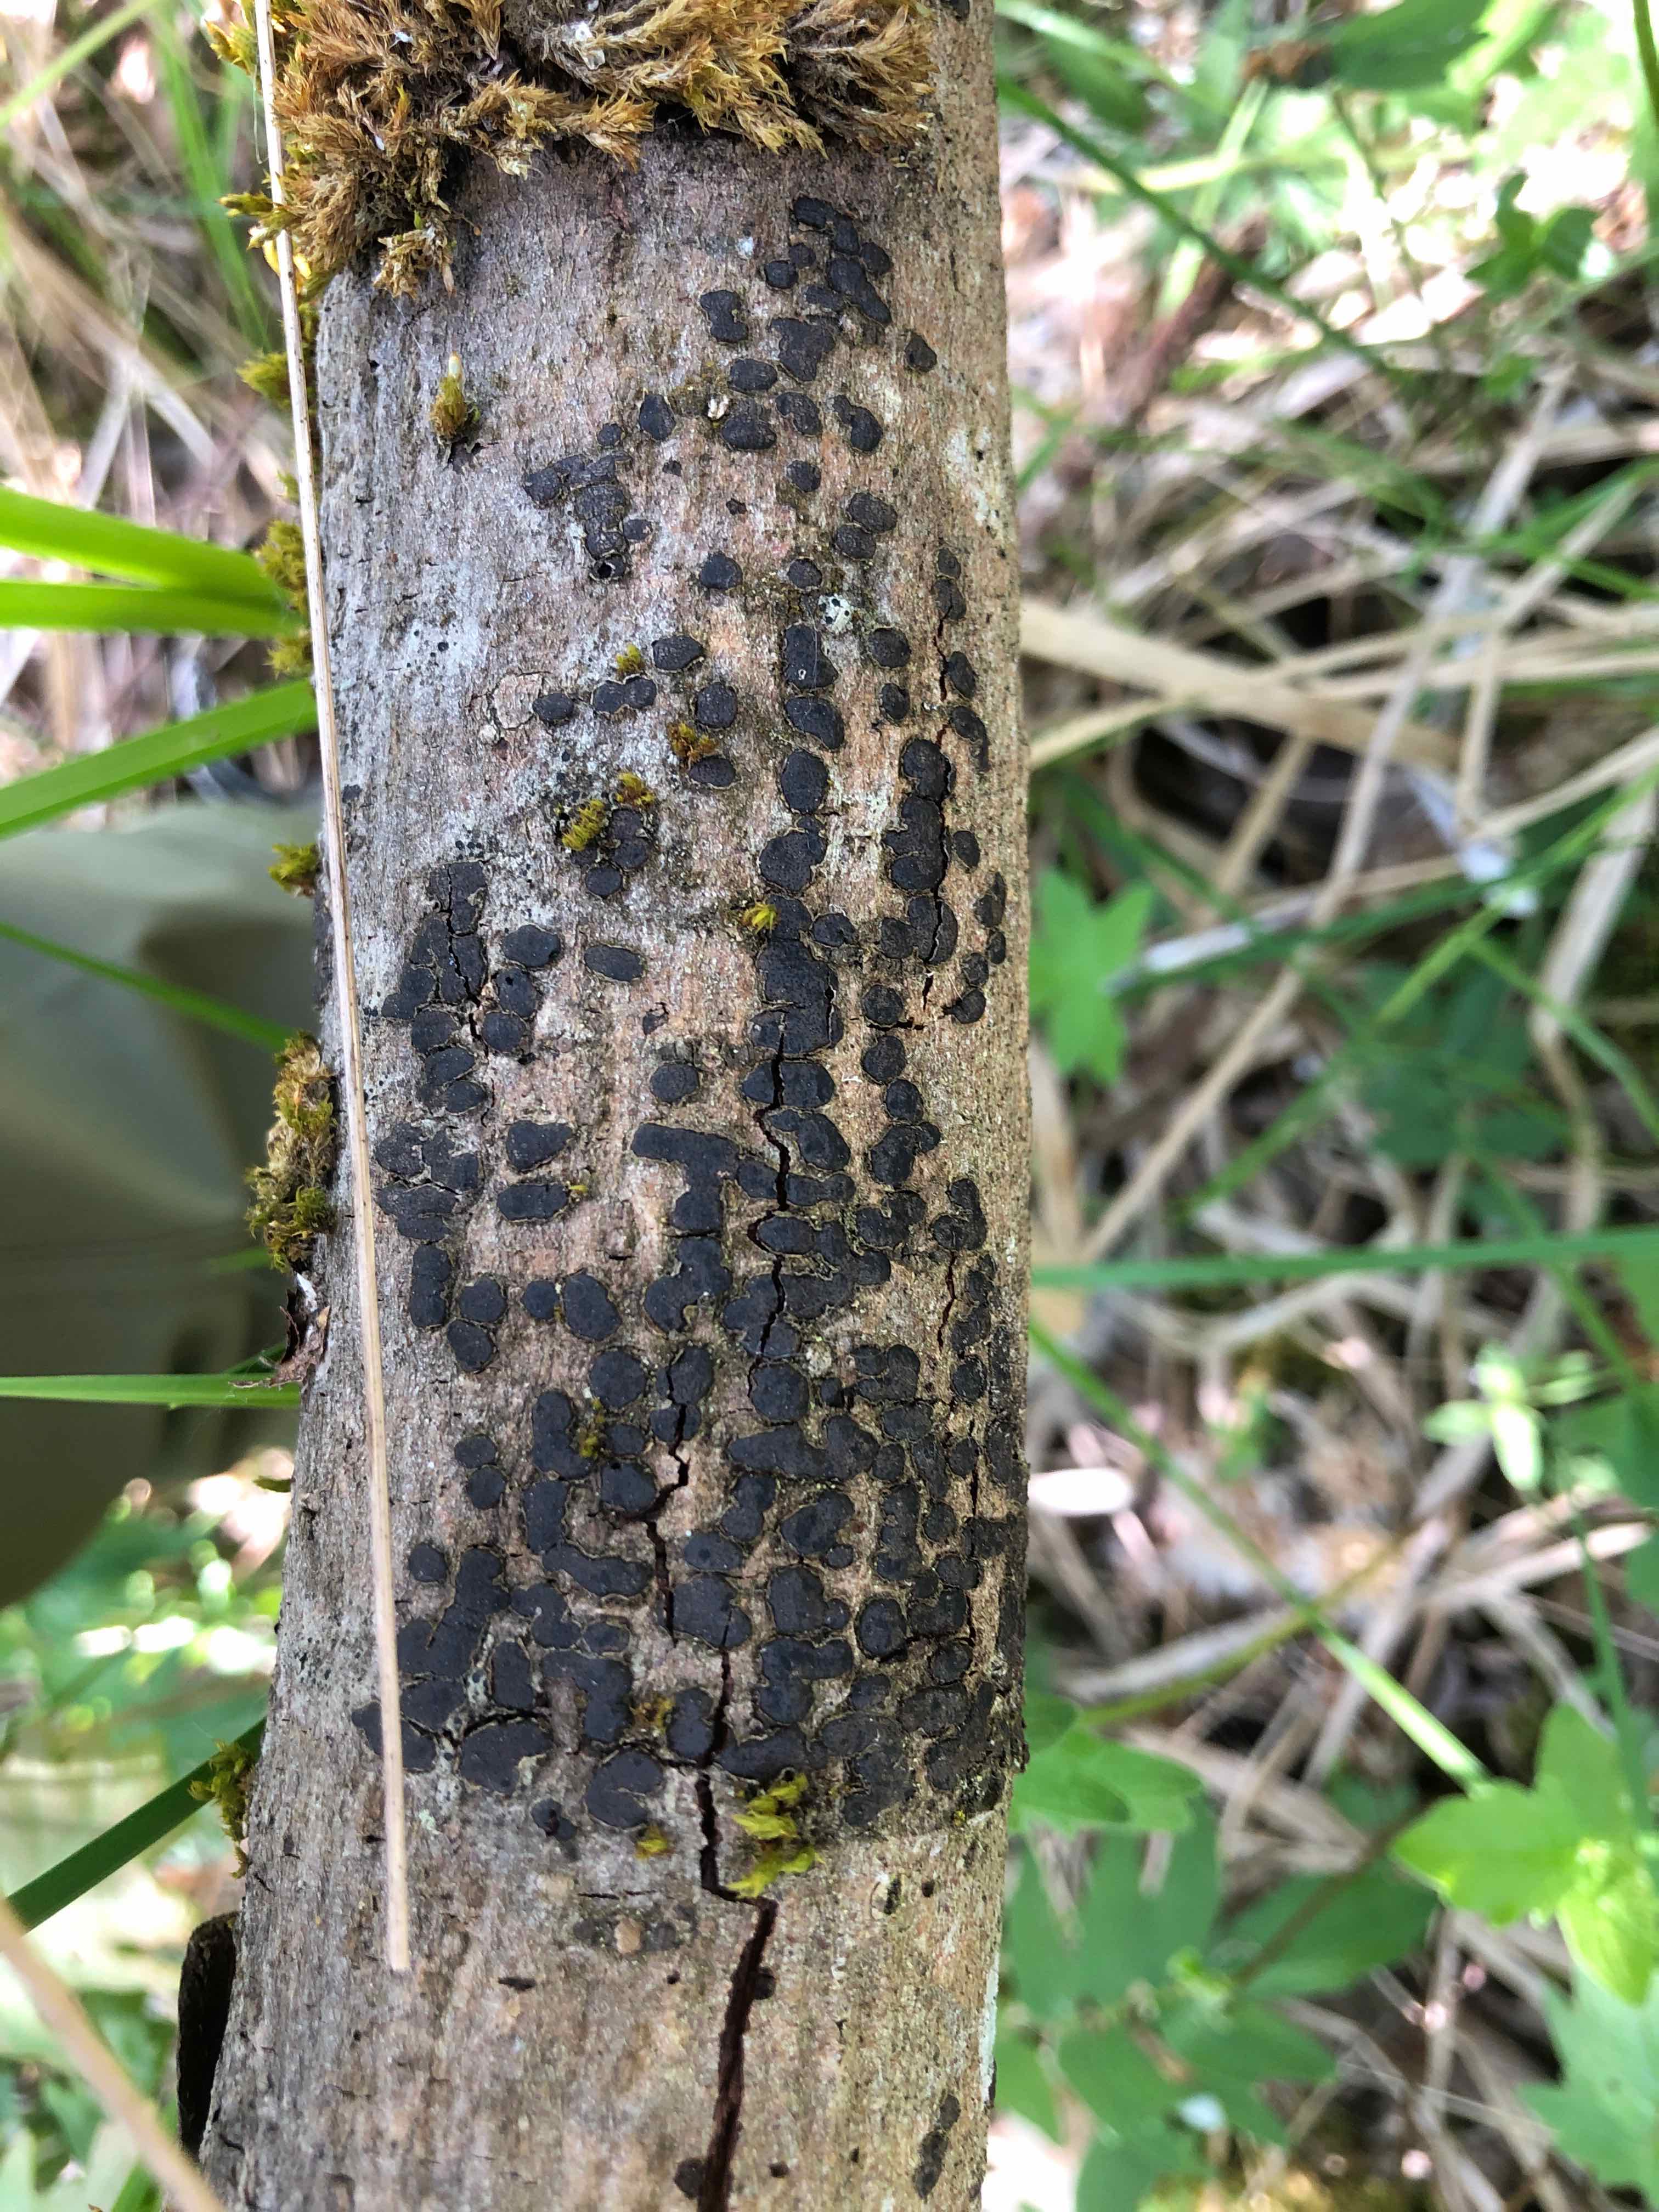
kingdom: Fungi
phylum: Ascomycota
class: Sordariomycetes
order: Xylariales
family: Diatrypaceae
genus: Diatrype
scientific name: Diatrype bullata
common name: pile-kulskorpe
